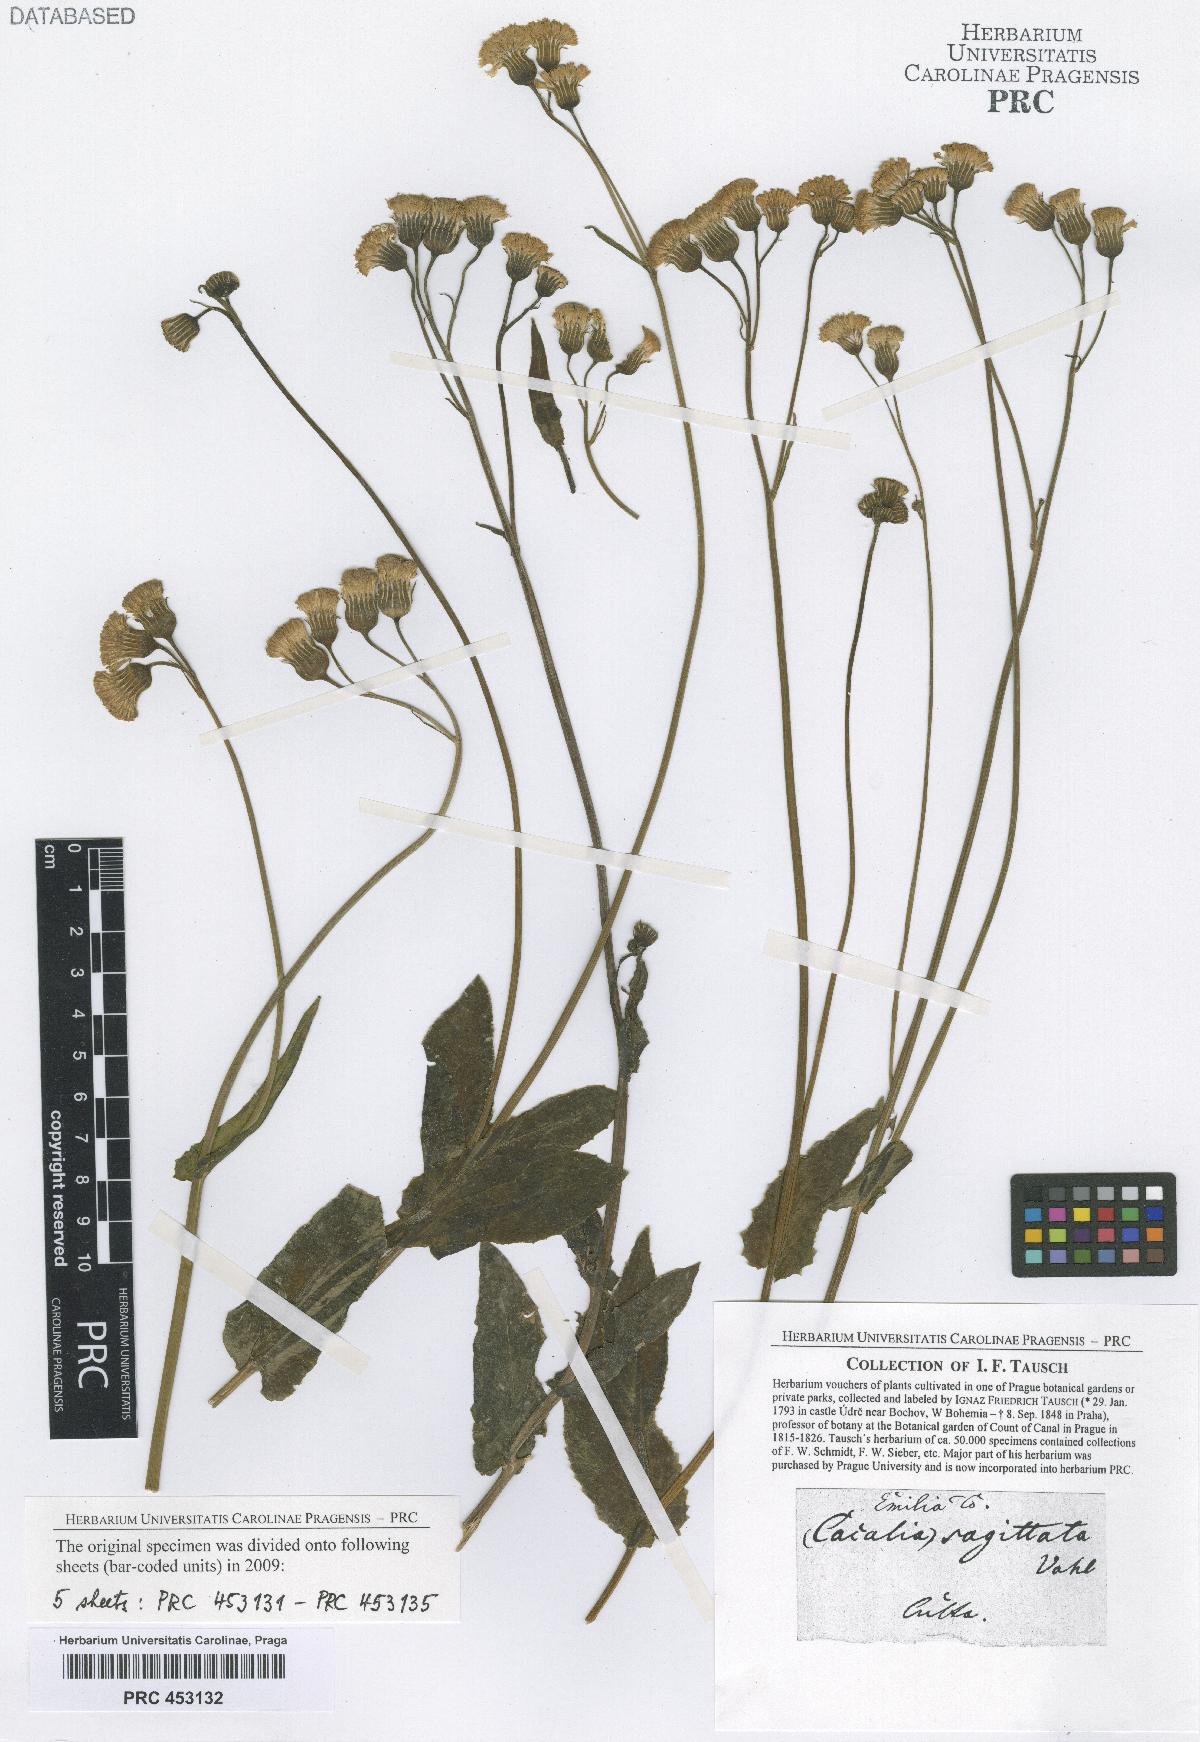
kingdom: Plantae
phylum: Tracheophyta
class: Magnoliopsida
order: Asterales
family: Asteraceae
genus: Adenostyles
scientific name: Adenostyles Cacalia scandens
